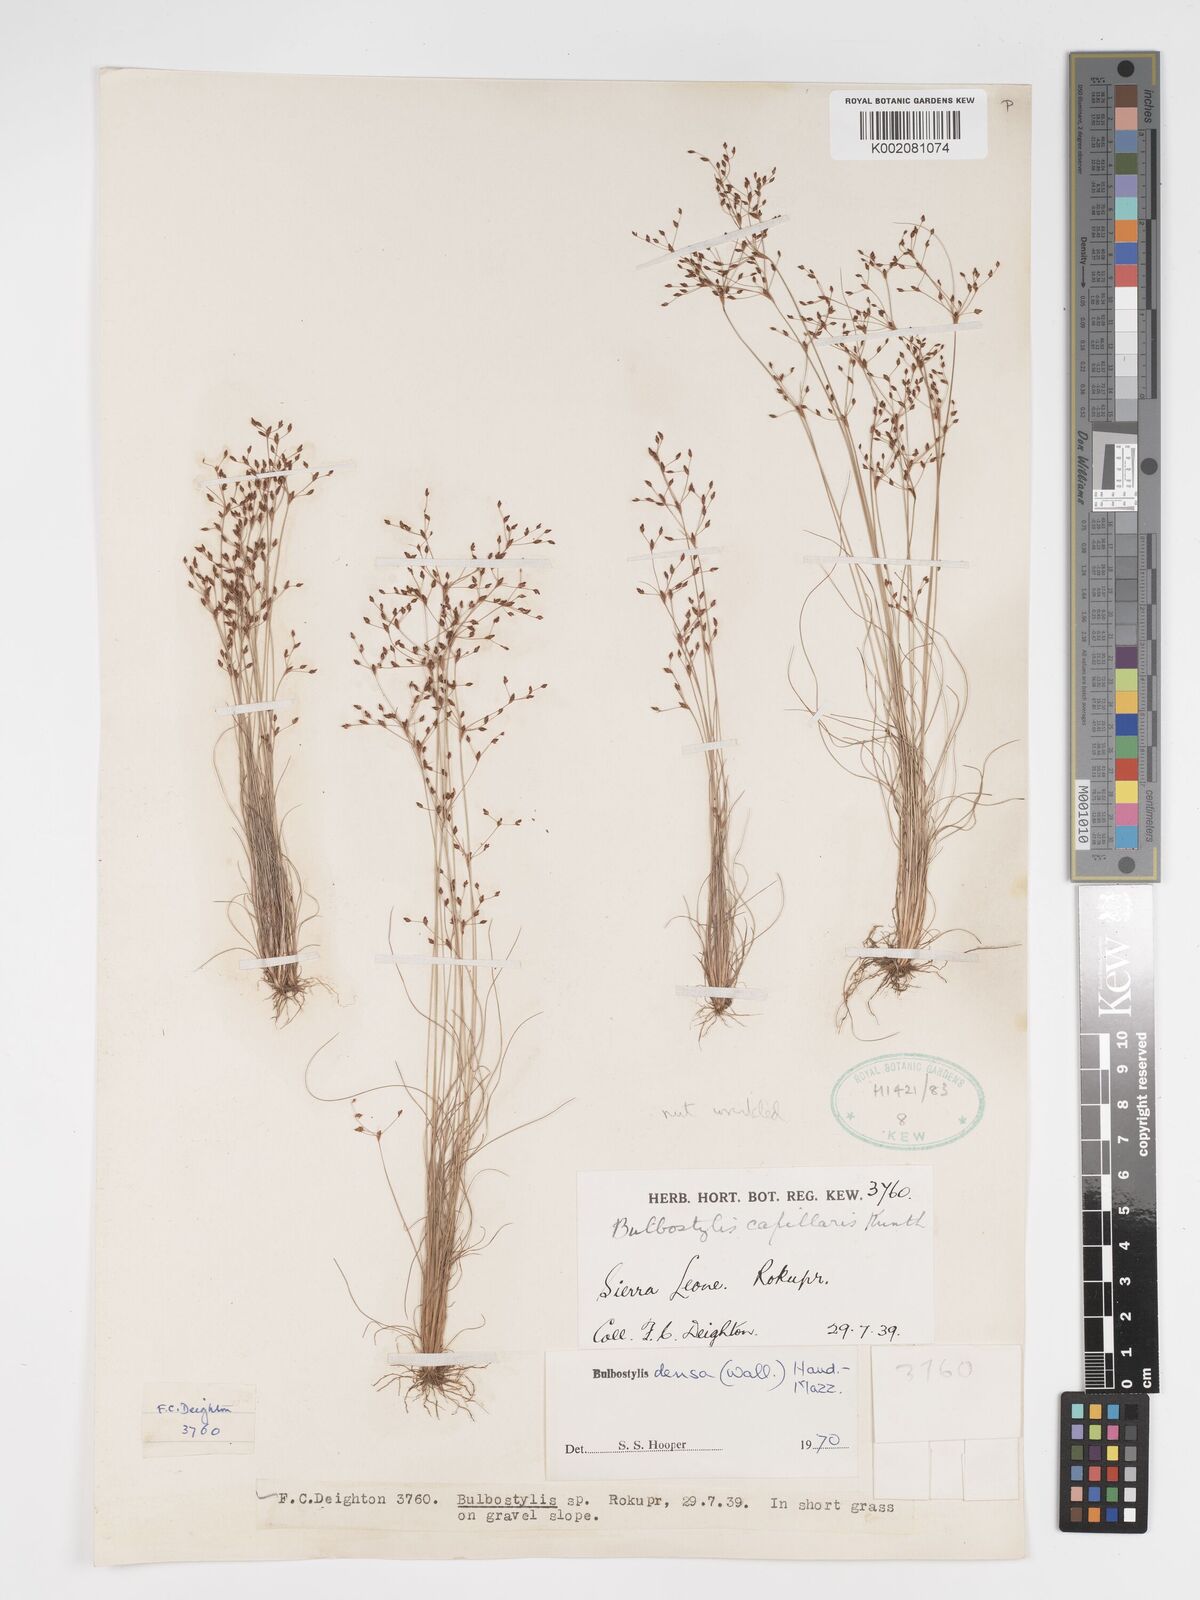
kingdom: Plantae
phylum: Tracheophyta
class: Liliopsida
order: Poales
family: Cyperaceae
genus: Bulbostylis
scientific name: Bulbostylis densa
